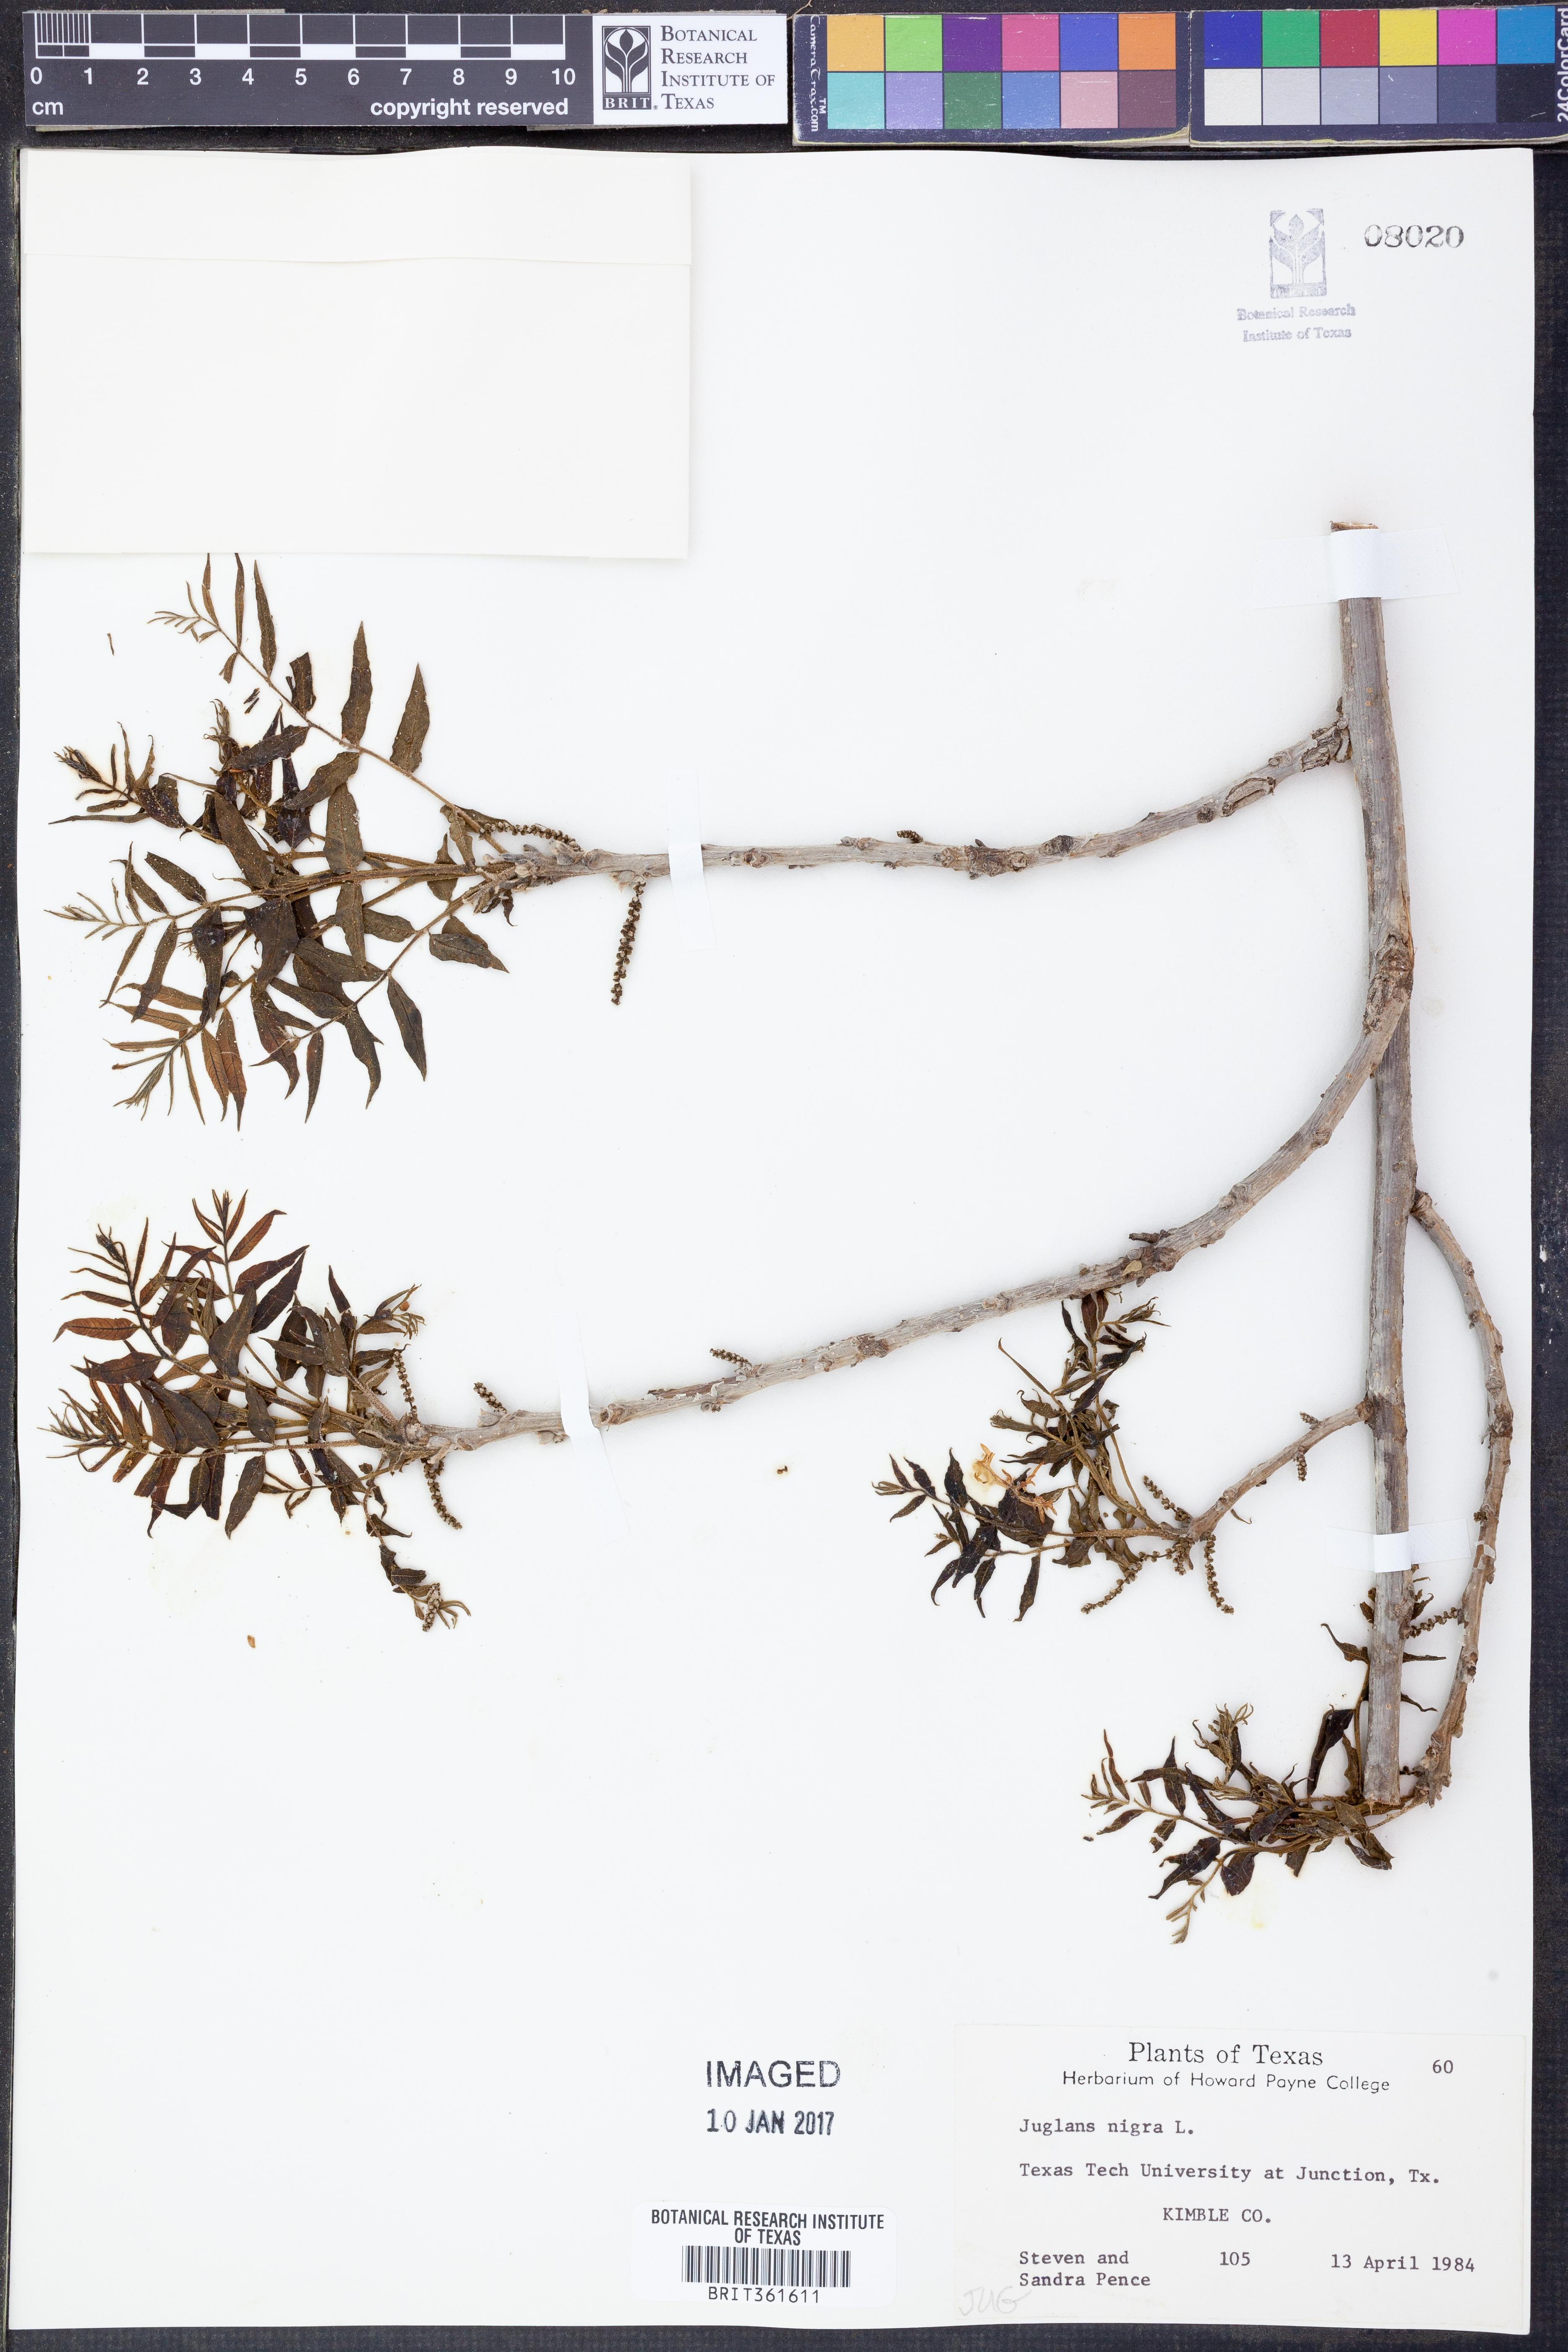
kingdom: Plantae
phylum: Tracheophyta
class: Magnoliopsida
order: Fagales
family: Juglandaceae
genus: Juglans
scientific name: Juglans nigra
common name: Black walnut
